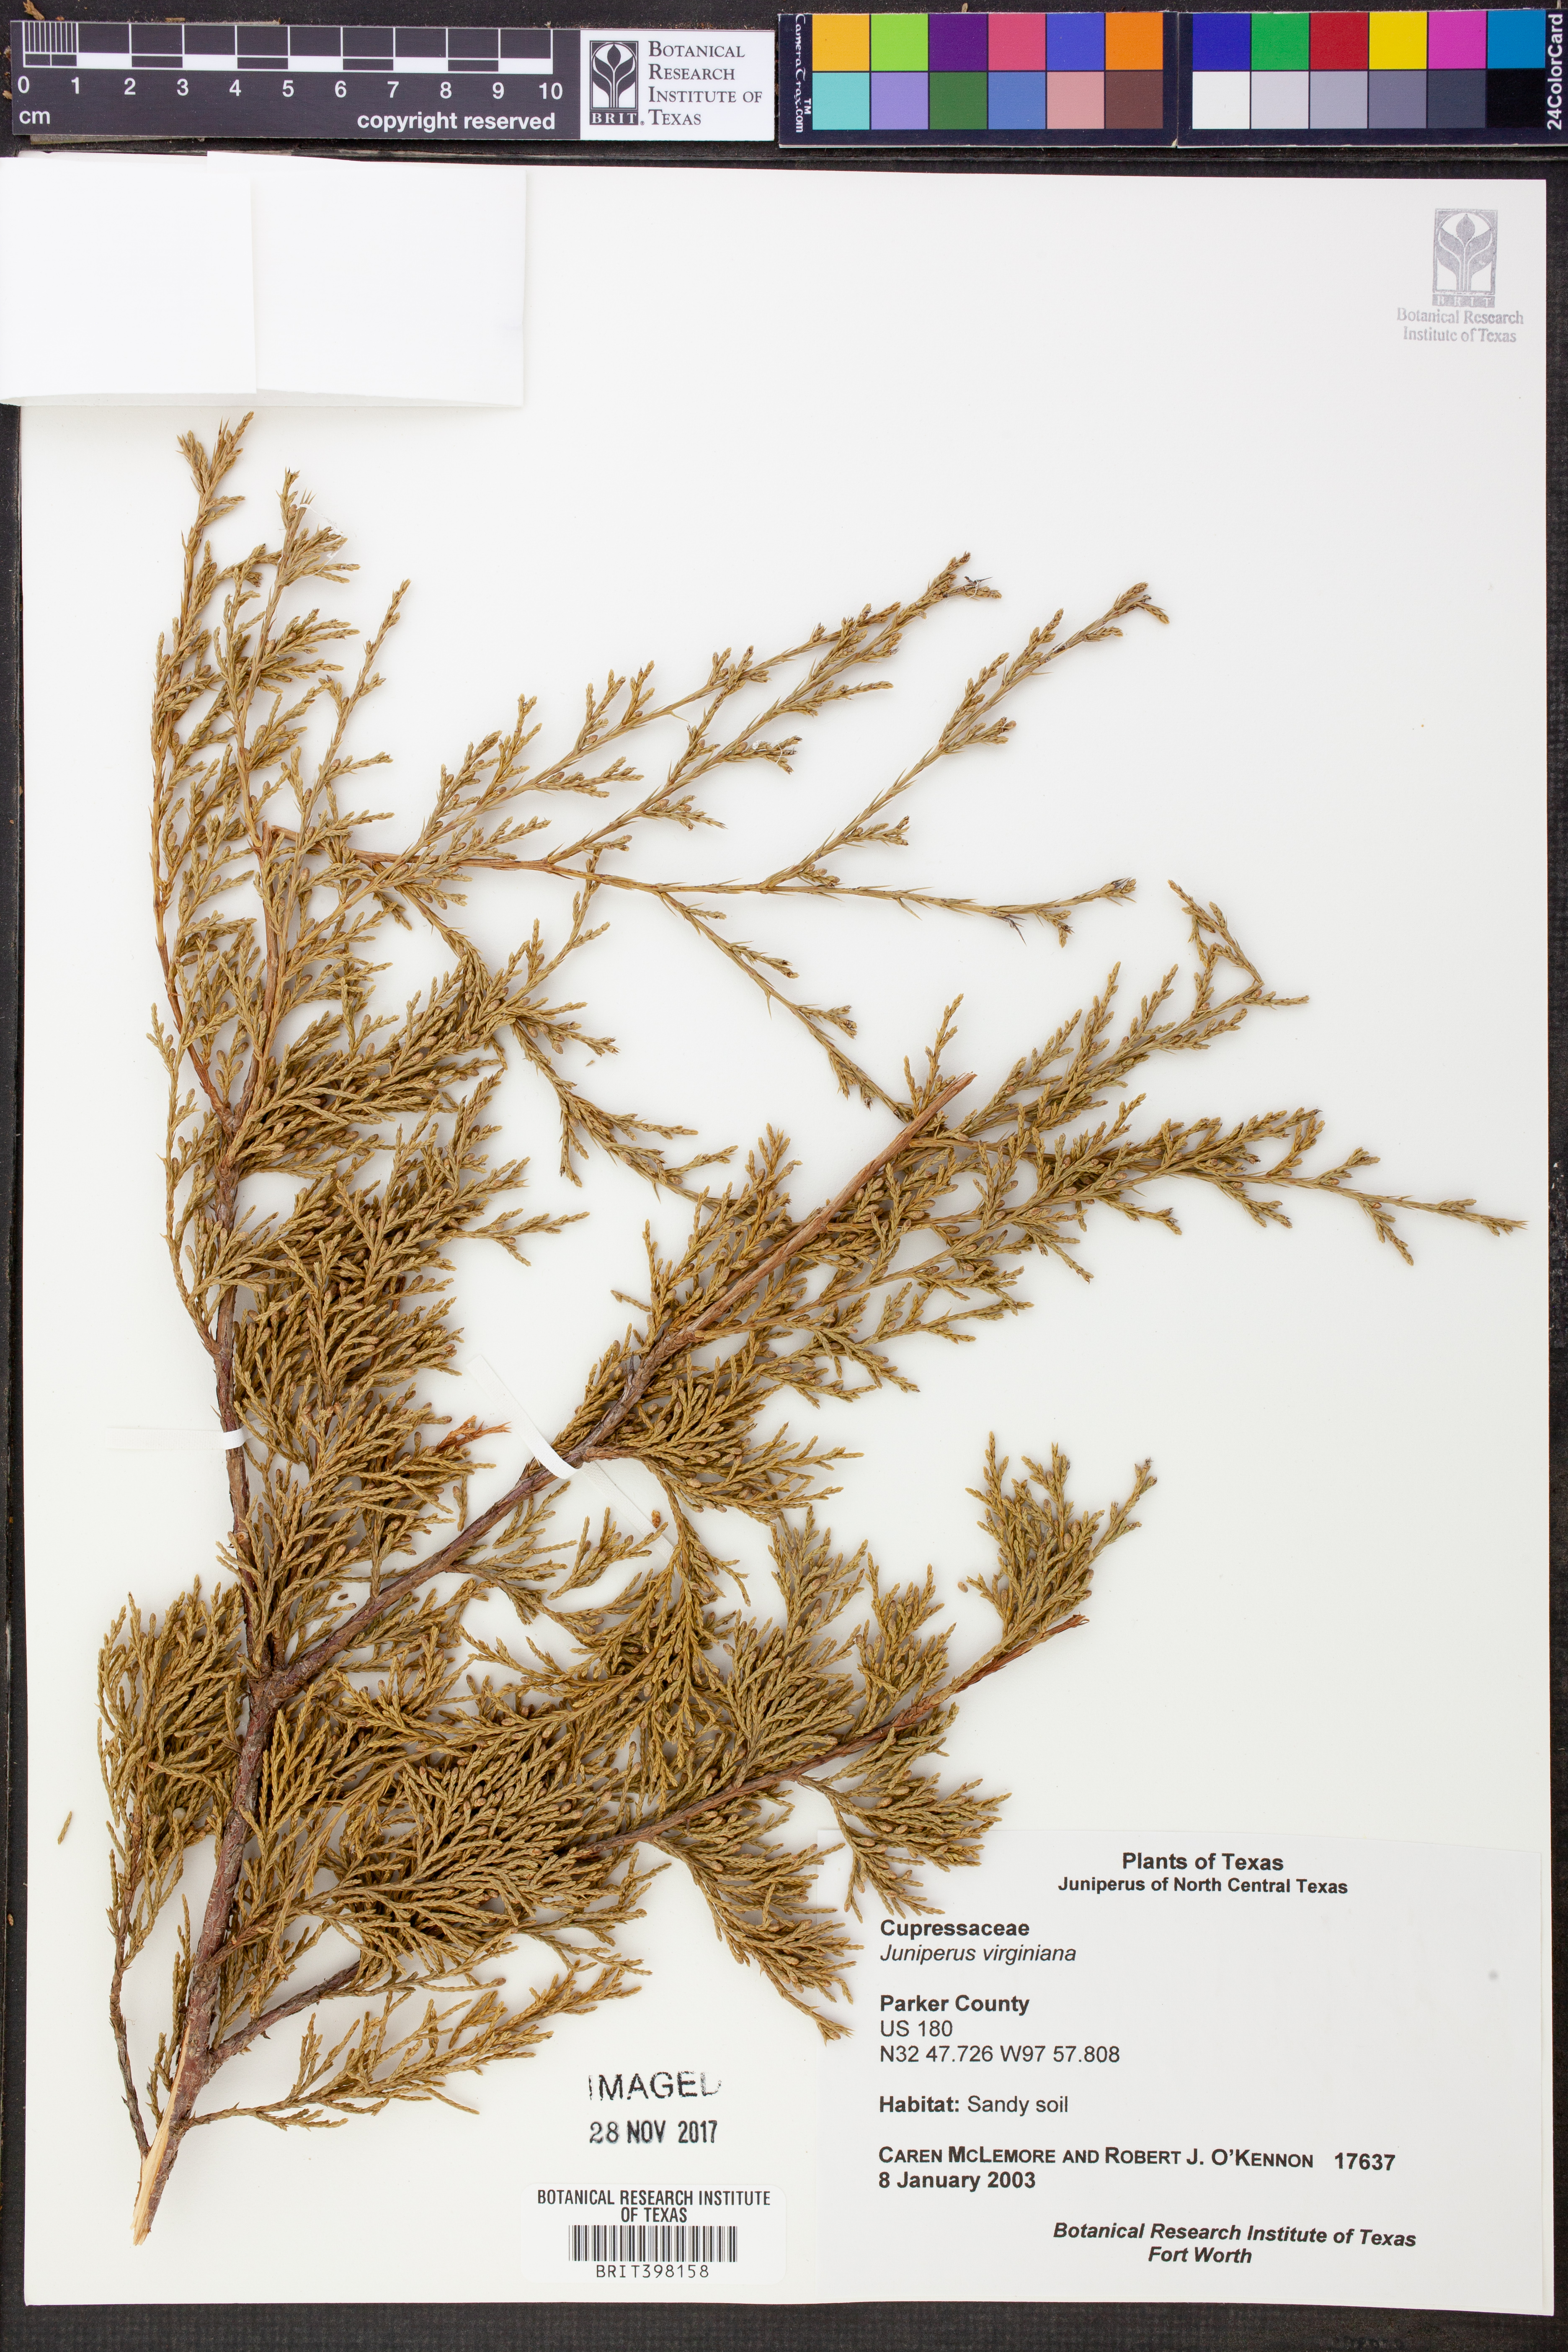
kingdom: Plantae
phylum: Tracheophyta
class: Pinopsida
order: Pinales
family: Cupressaceae
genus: Juniperus
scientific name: Juniperus virginiana
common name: Red juniper
